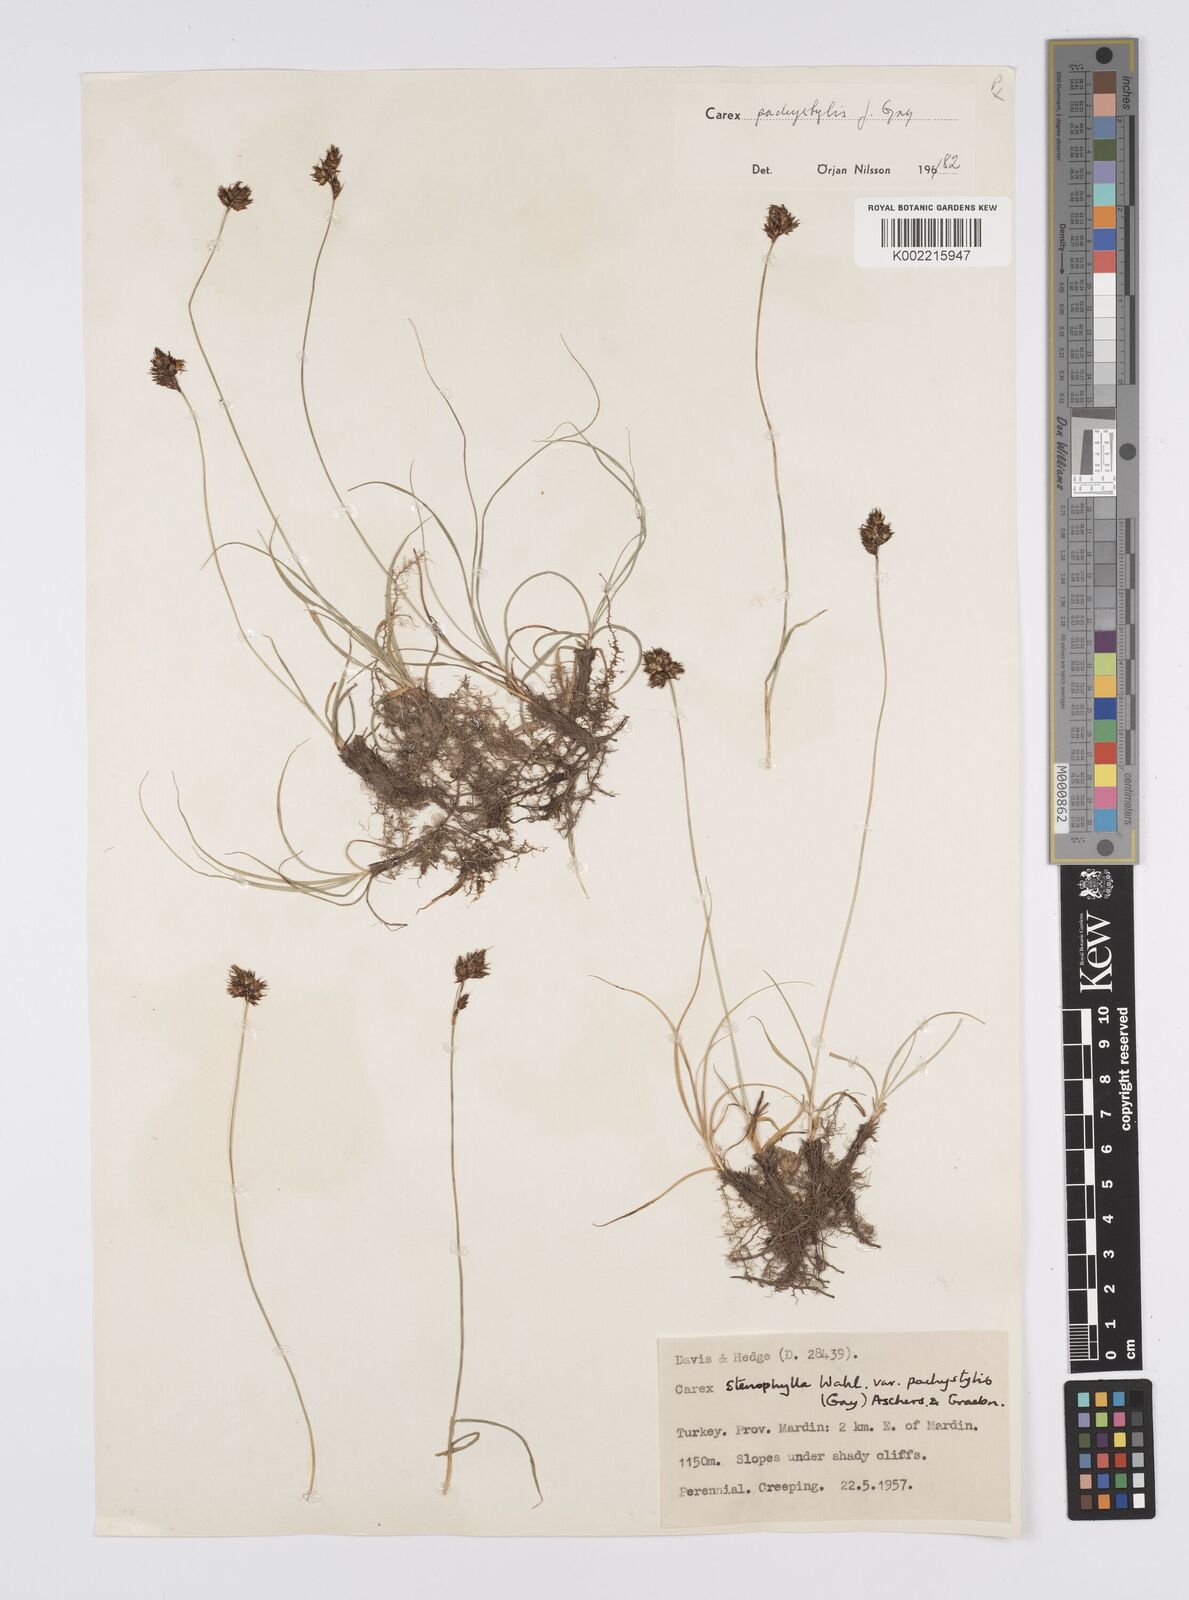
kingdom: Plantae
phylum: Tracheophyta
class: Liliopsida
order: Poales
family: Cyperaceae
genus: Carex
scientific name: Carex pachystylis
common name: Thick-stem sedge
